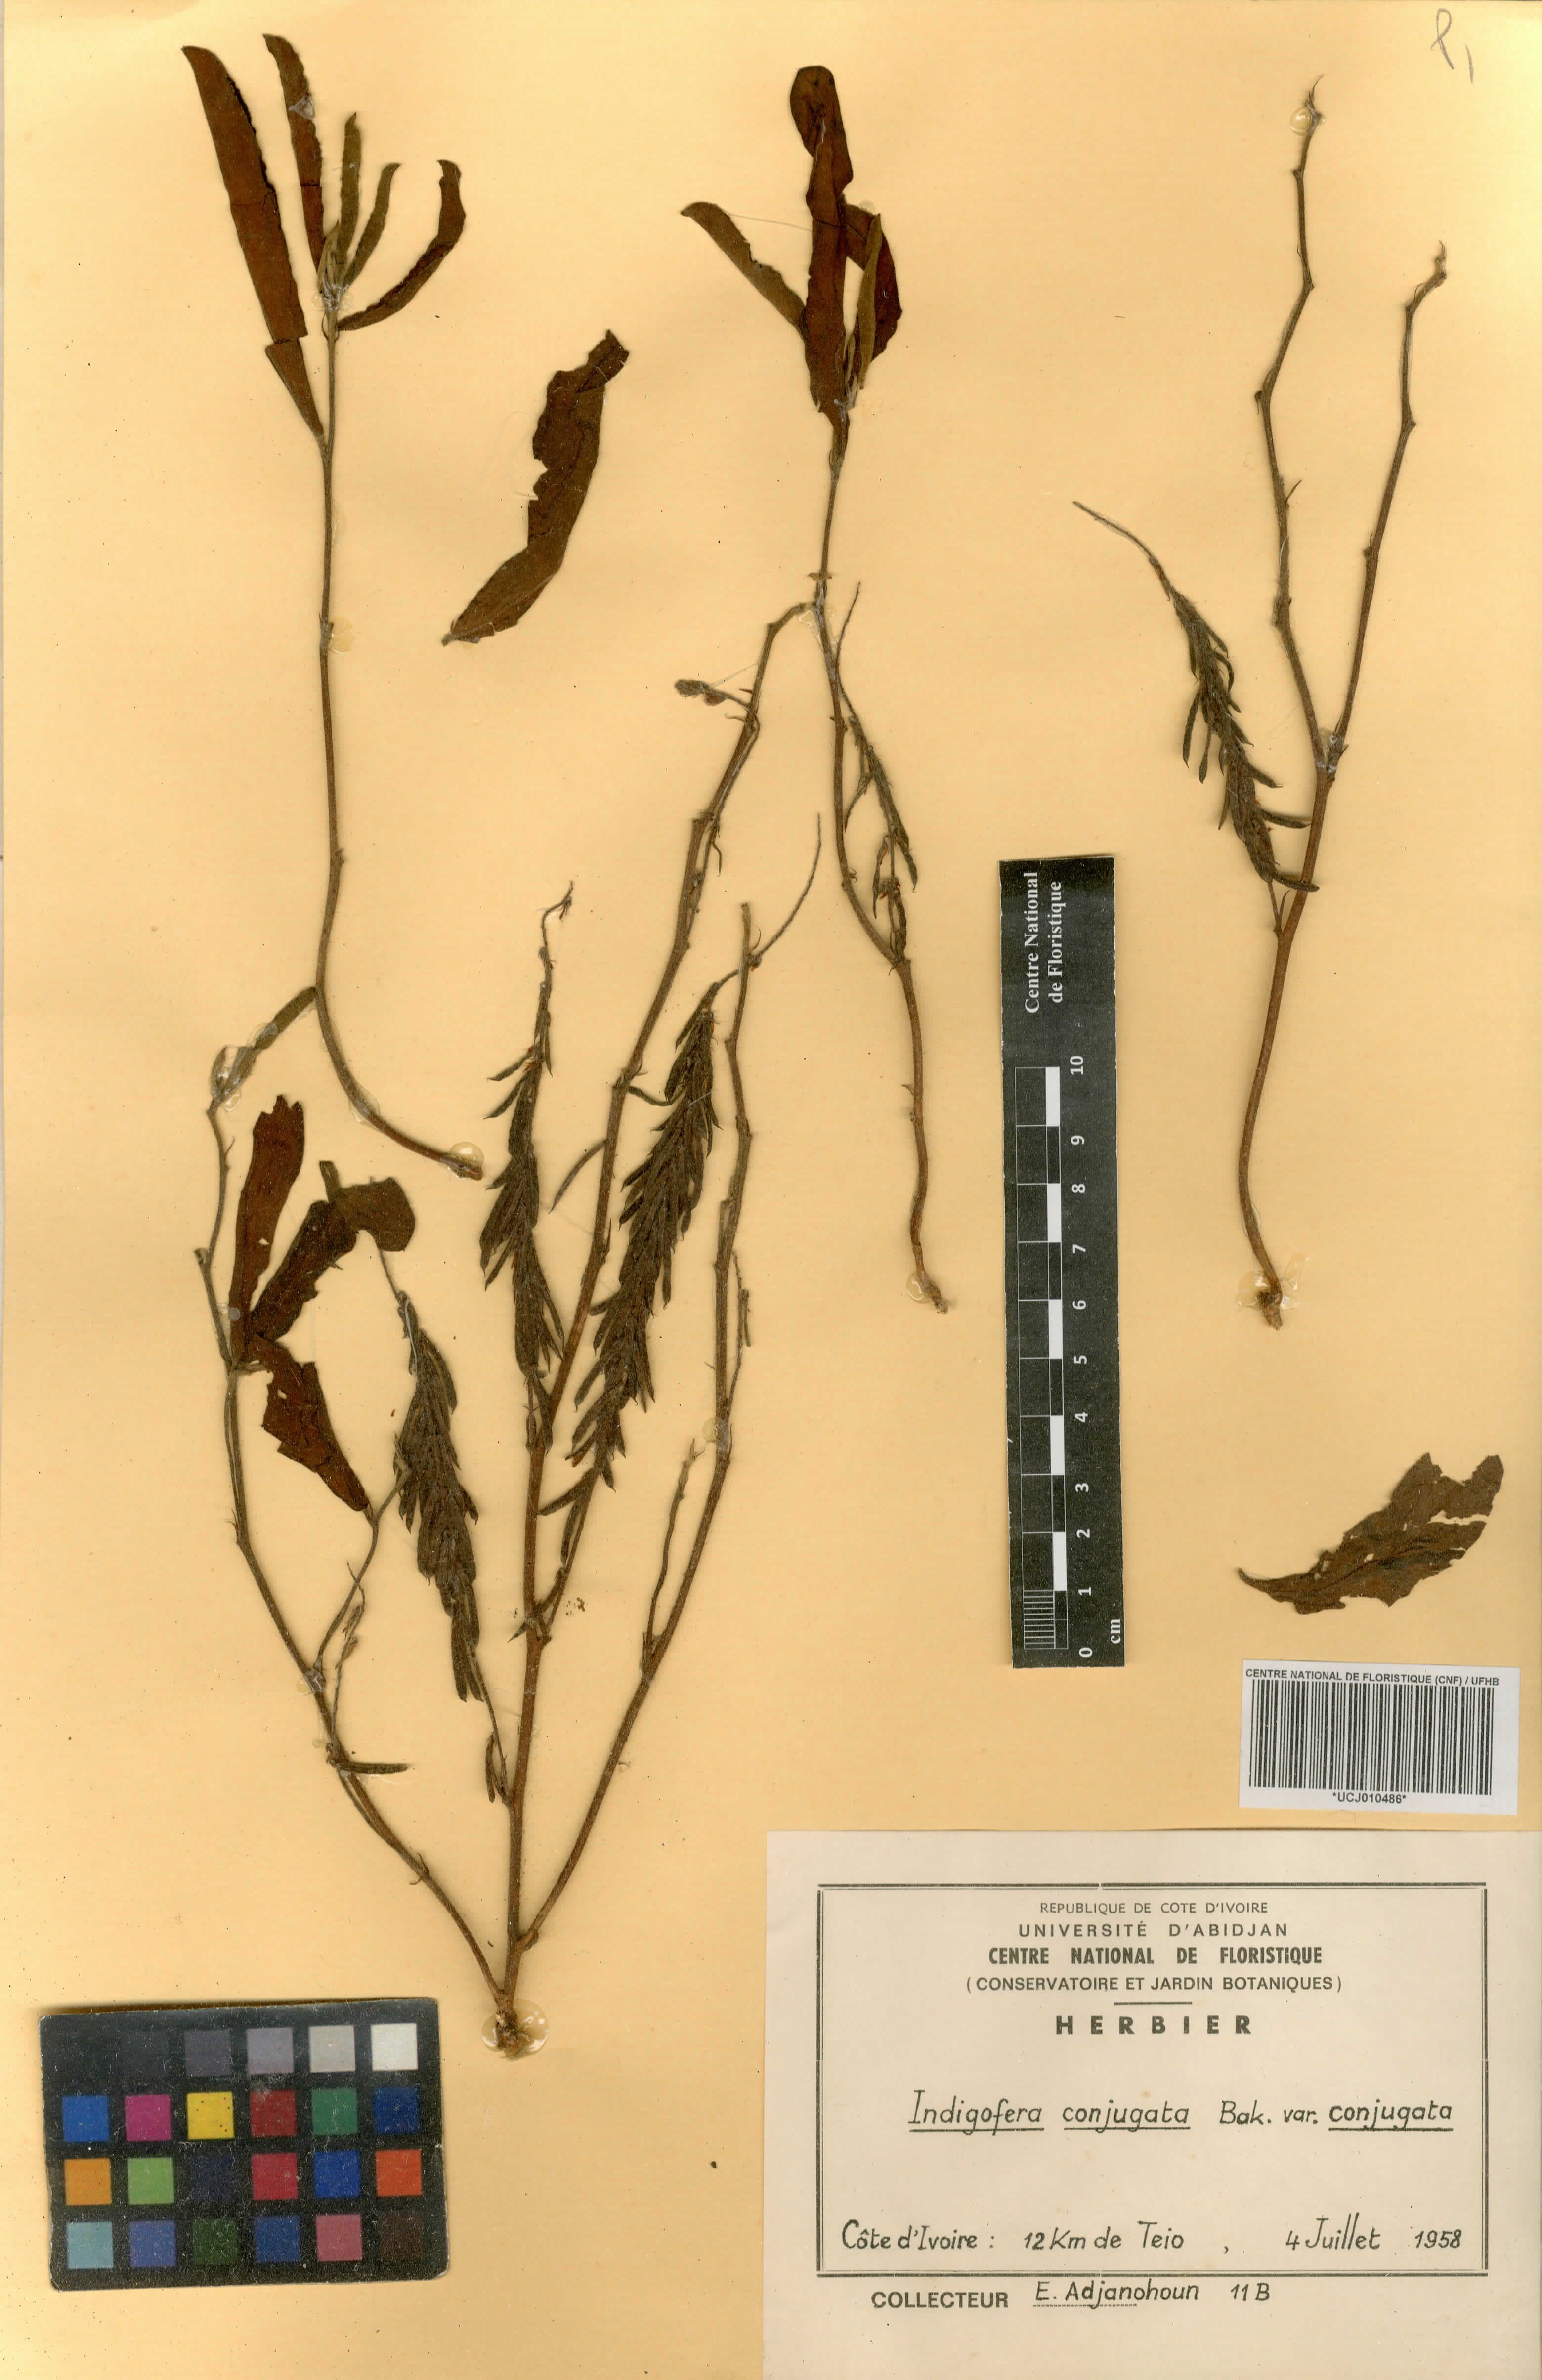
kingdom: Plantae
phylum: Tracheophyta
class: Magnoliopsida
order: Fabales
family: Fabaceae
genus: Indigofera
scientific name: Indigofera conjugata
